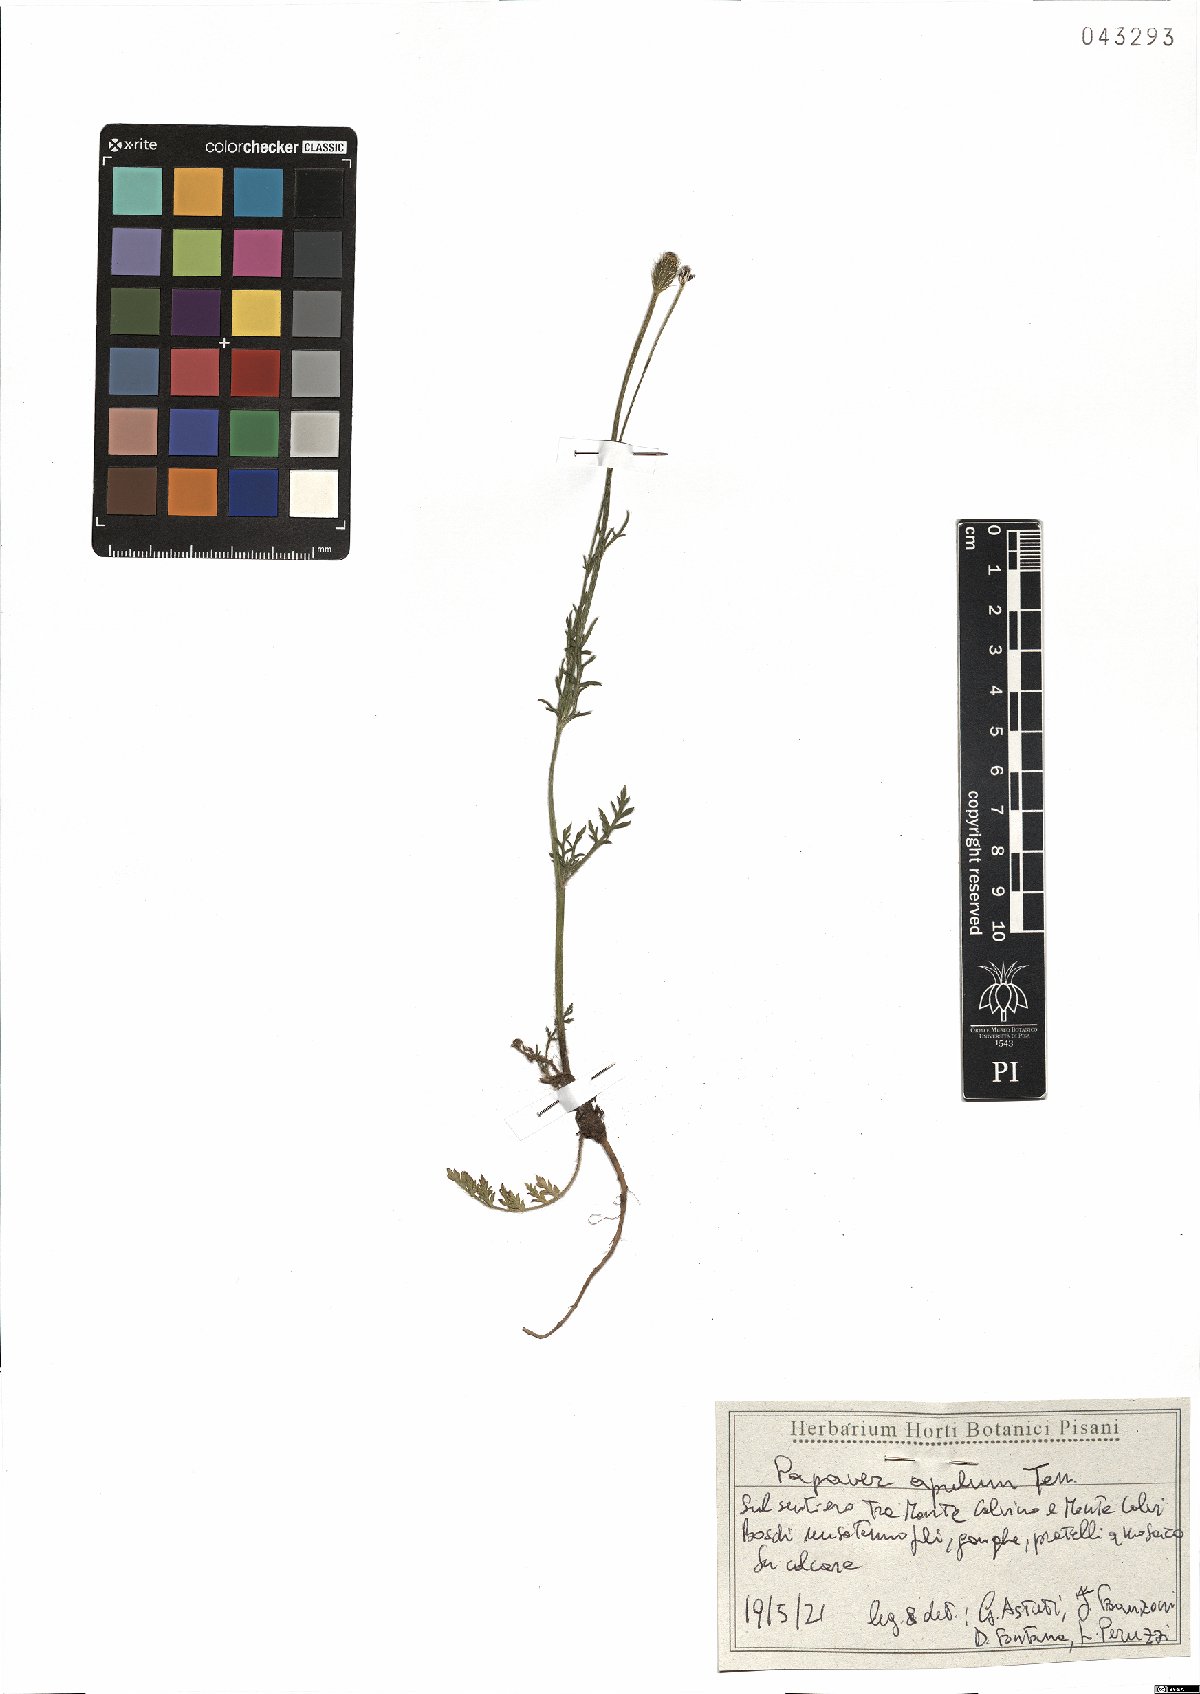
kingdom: Plantae
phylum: Tracheophyta
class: Magnoliopsida
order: Ranunculales
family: Papaveraceae
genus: Roemeria
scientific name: Roemeria apula
